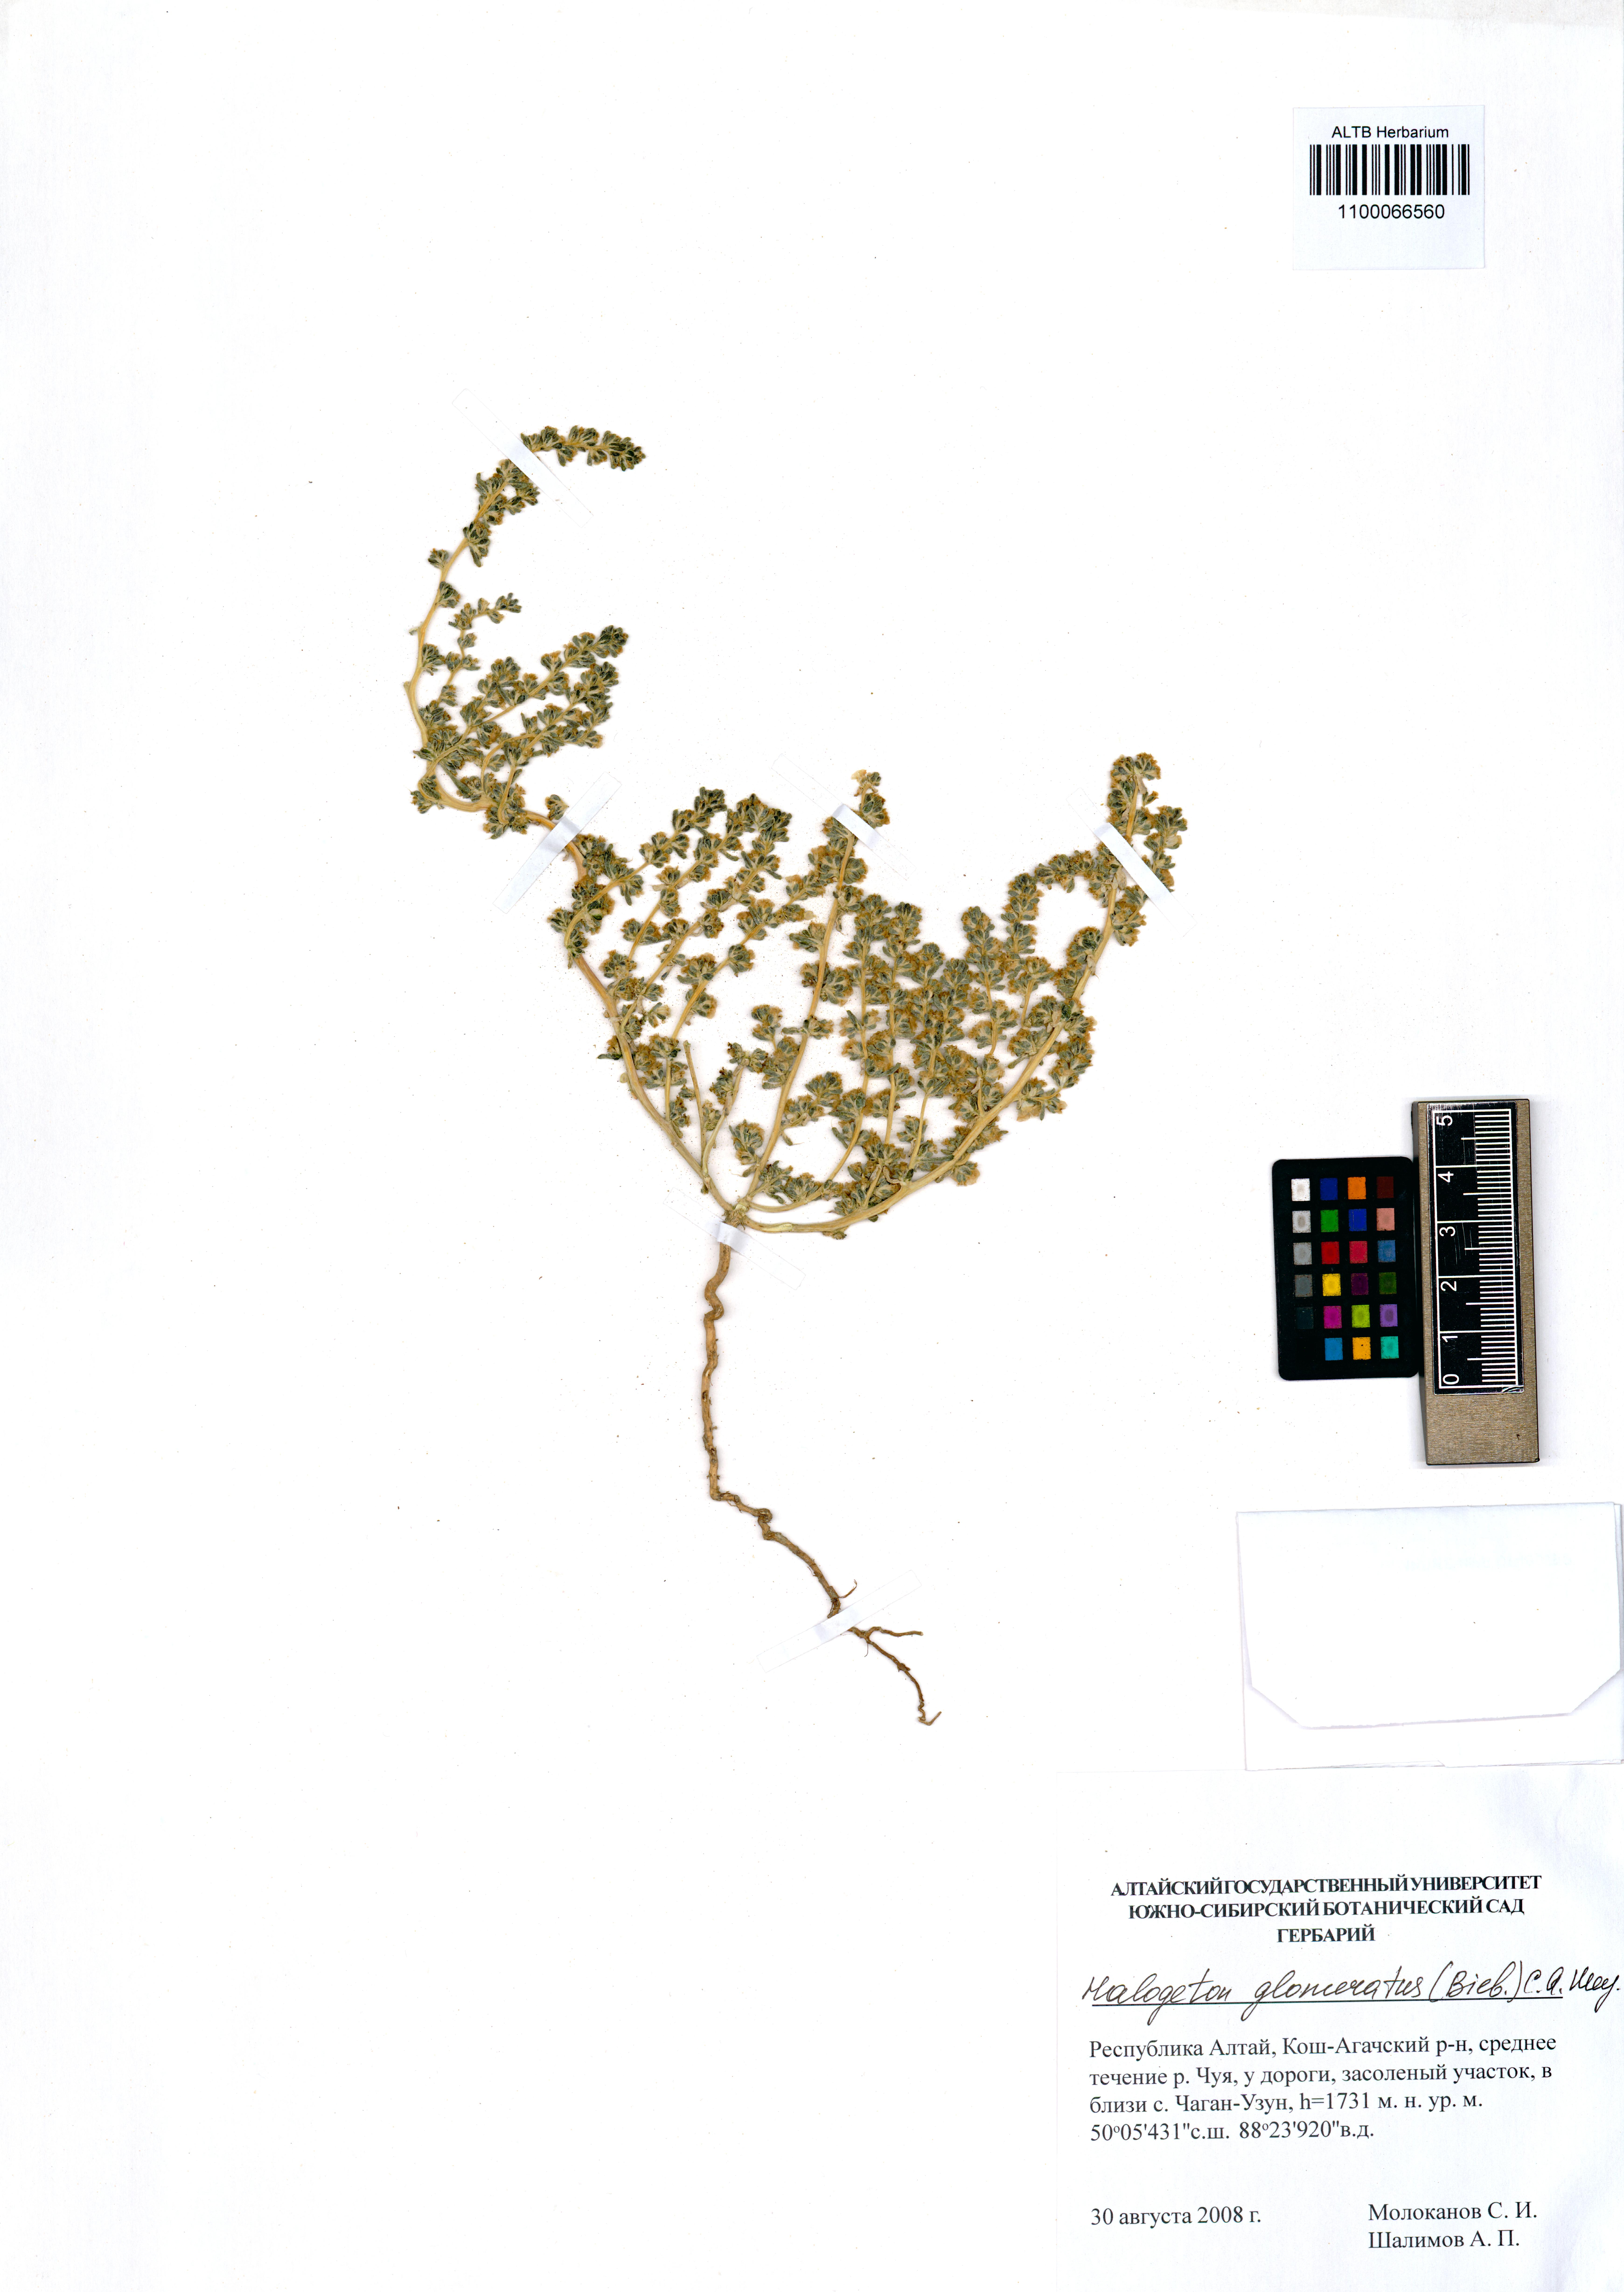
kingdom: Plantae
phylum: Tracheophyta
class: Magnoliopsida
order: Caryophyllales
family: Amaranthaceae
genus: Halogeton
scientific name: Halogeton glomeratus
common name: Saltlover
